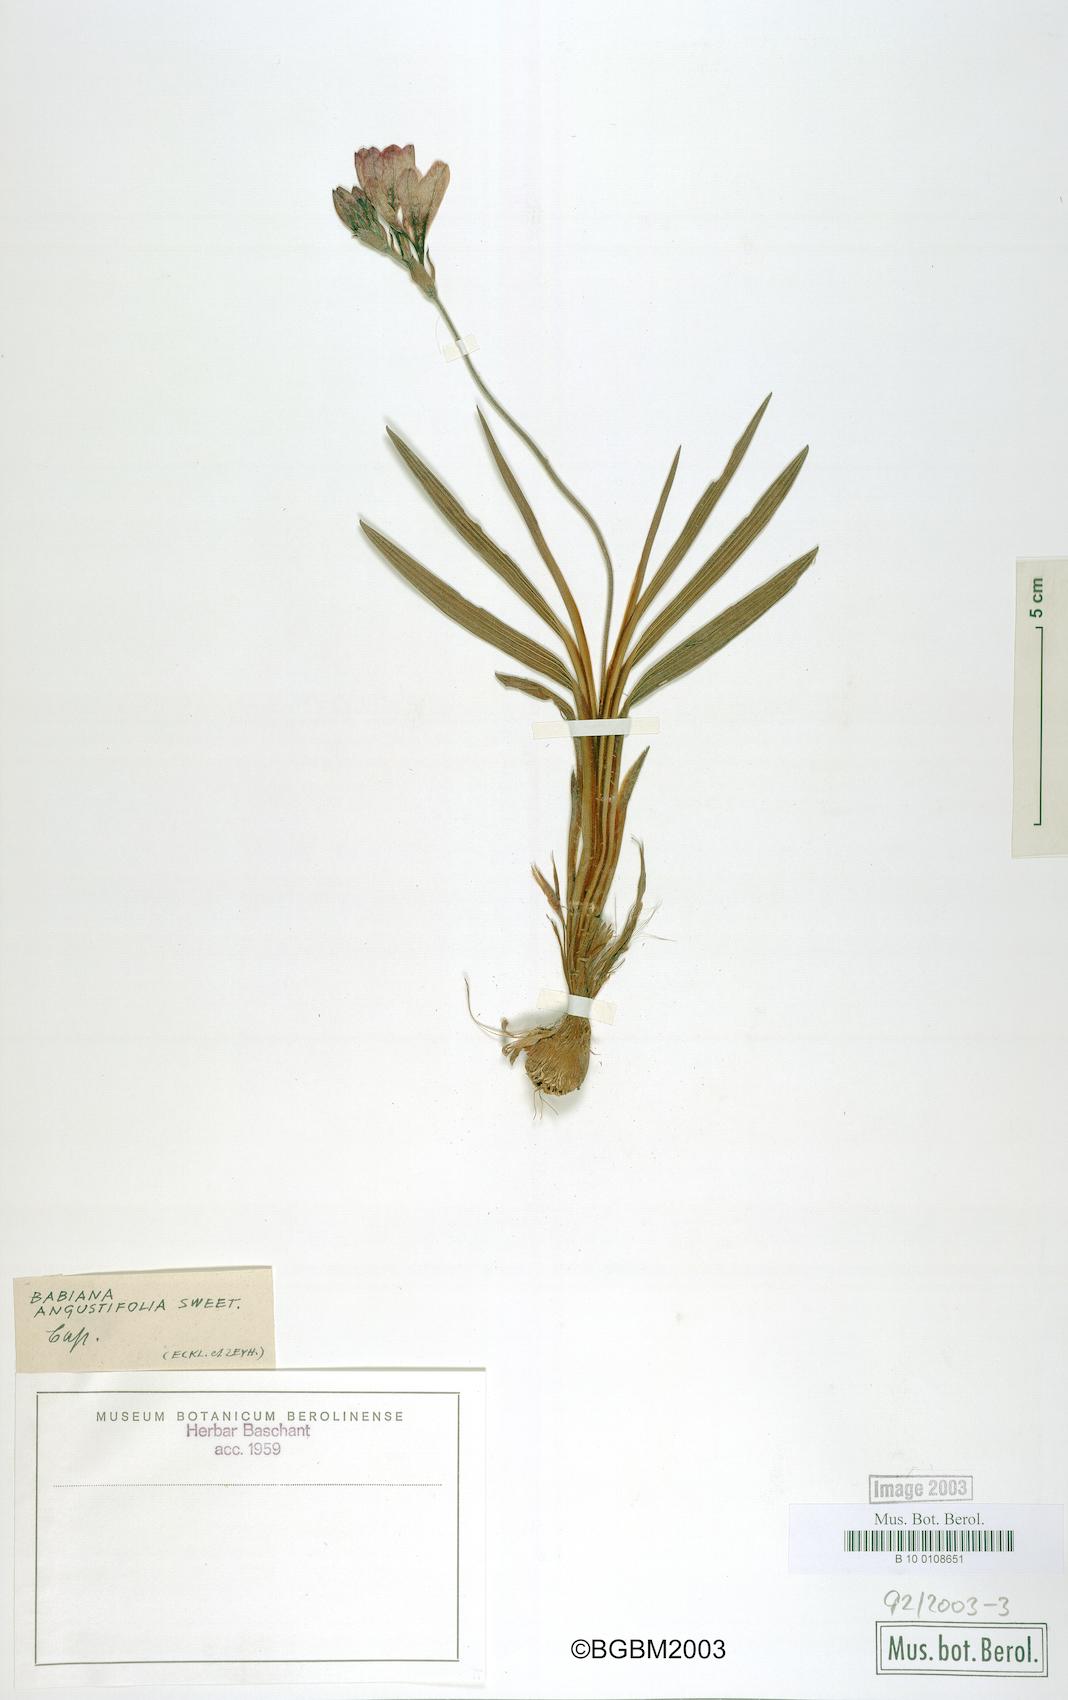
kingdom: Plantae
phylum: Tracheophyta
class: Liliopsida
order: Asparagales
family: Iridaceae
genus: Babiana
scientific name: Babiana angustifolia
